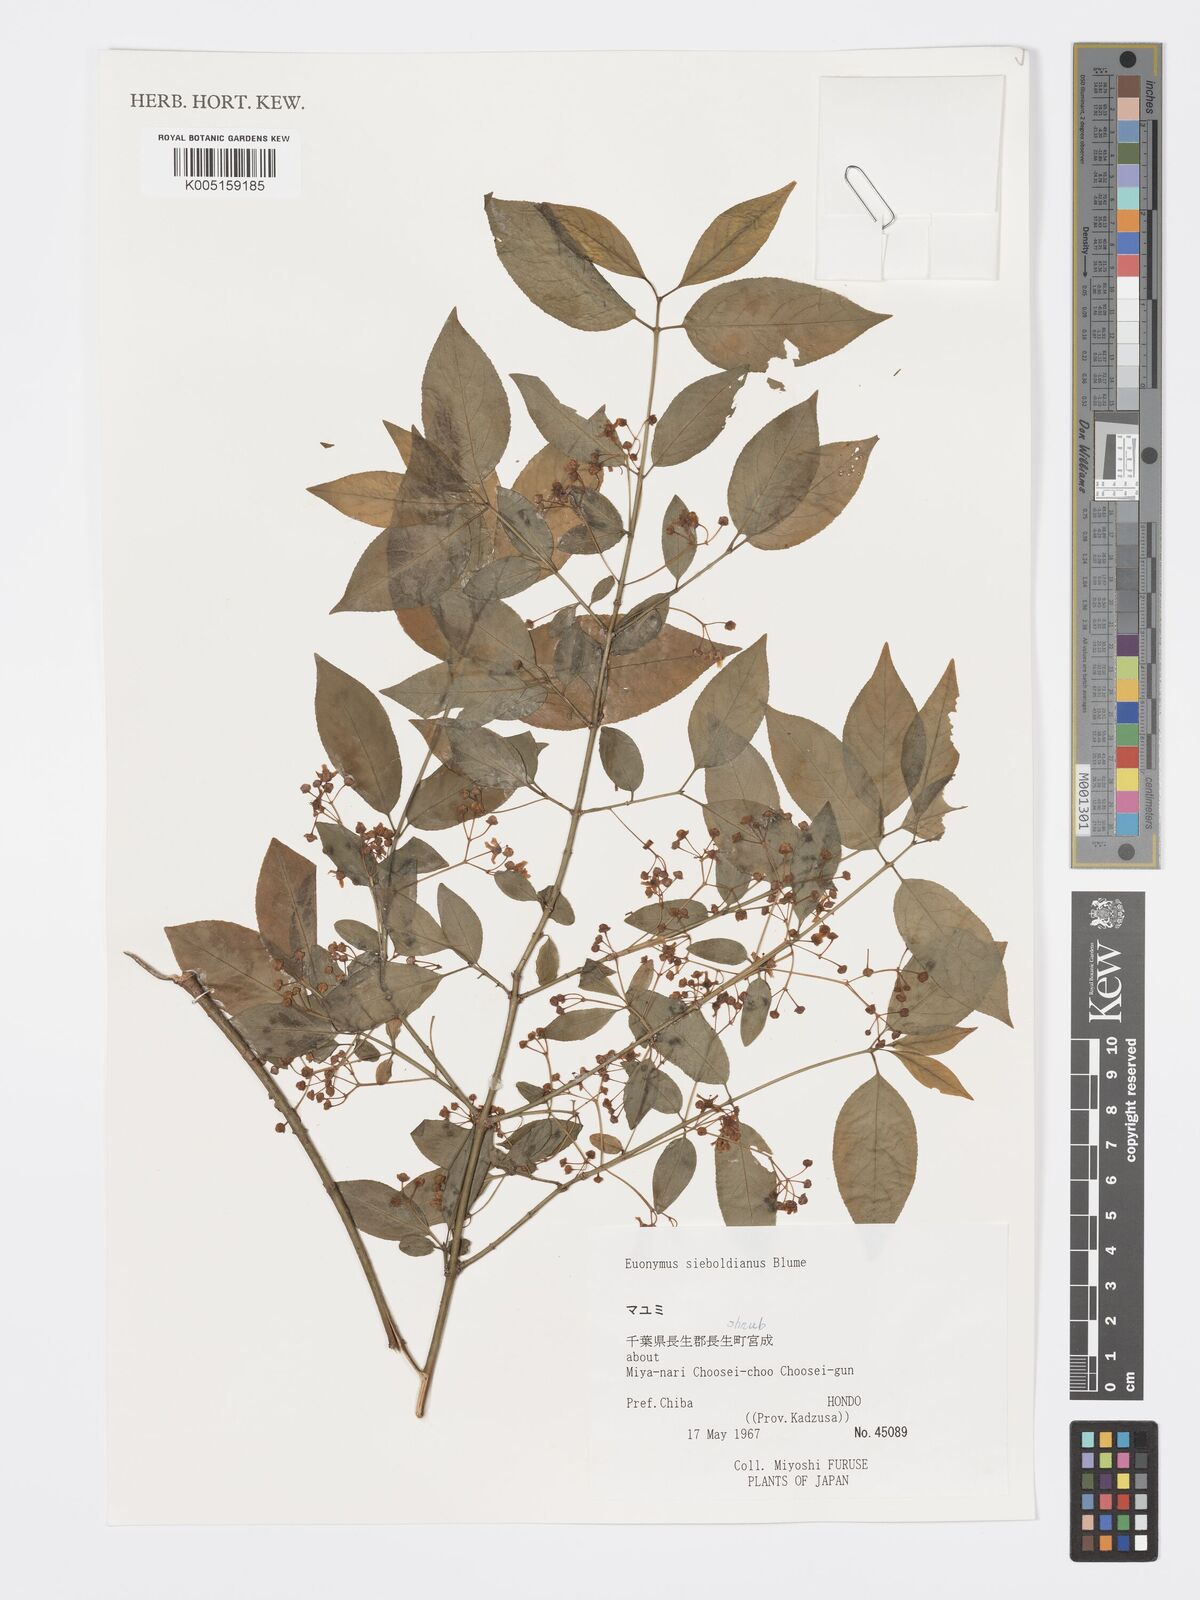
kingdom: Plantae
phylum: Tracheophyta
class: Magnoliopsida
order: Celastrales
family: Celastraceae
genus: Euonymus
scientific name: Euonymus hamiltonianus
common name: Hamilton's spindletree
